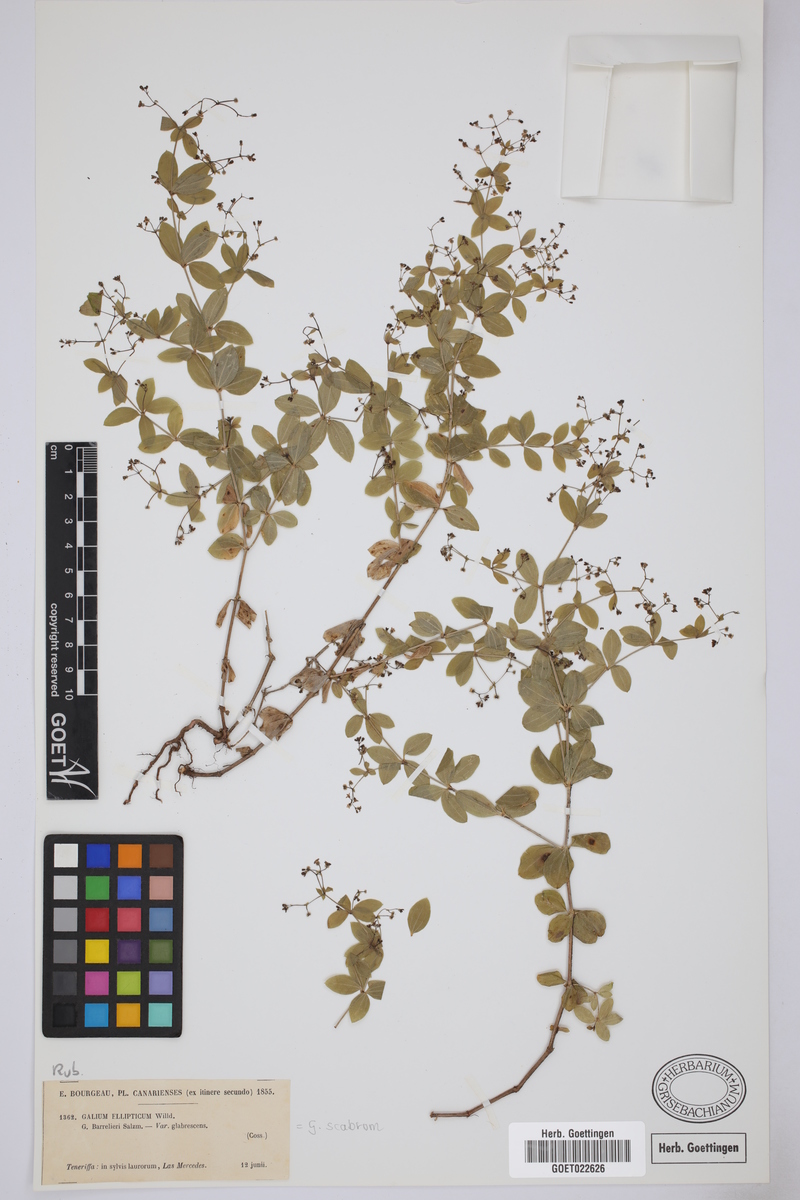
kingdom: Plantae
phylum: Tracheophyta
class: Magnoliopsida
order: Gentianales
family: Rubiaceae
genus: Galium
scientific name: Galium scabrum
